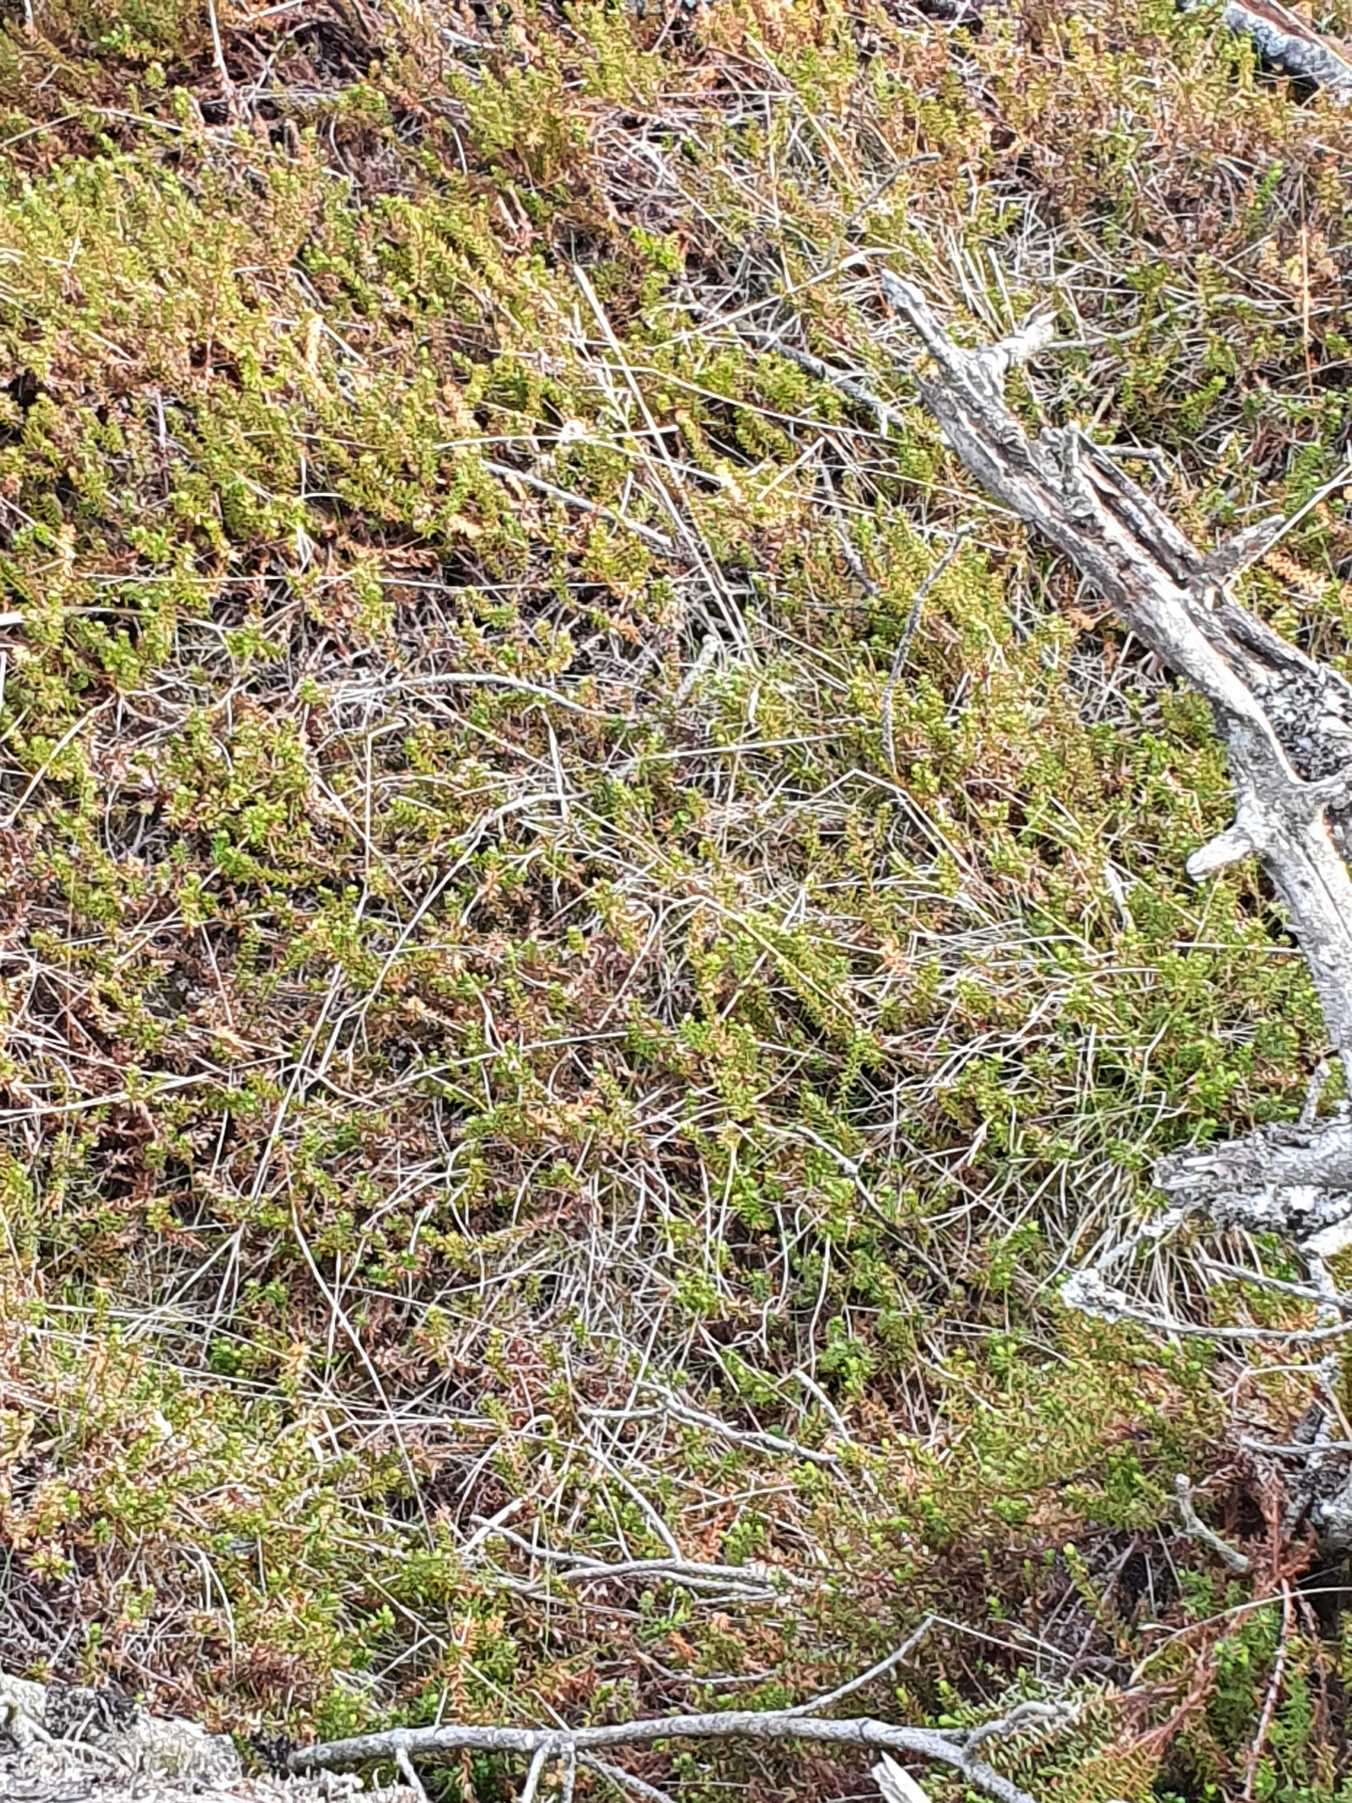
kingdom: Plantae
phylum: Tracheophyta
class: Magnoliopsida
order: Ericales
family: Ericaceae
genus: Empetrum
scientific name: Empetrum nigrum
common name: Revling
